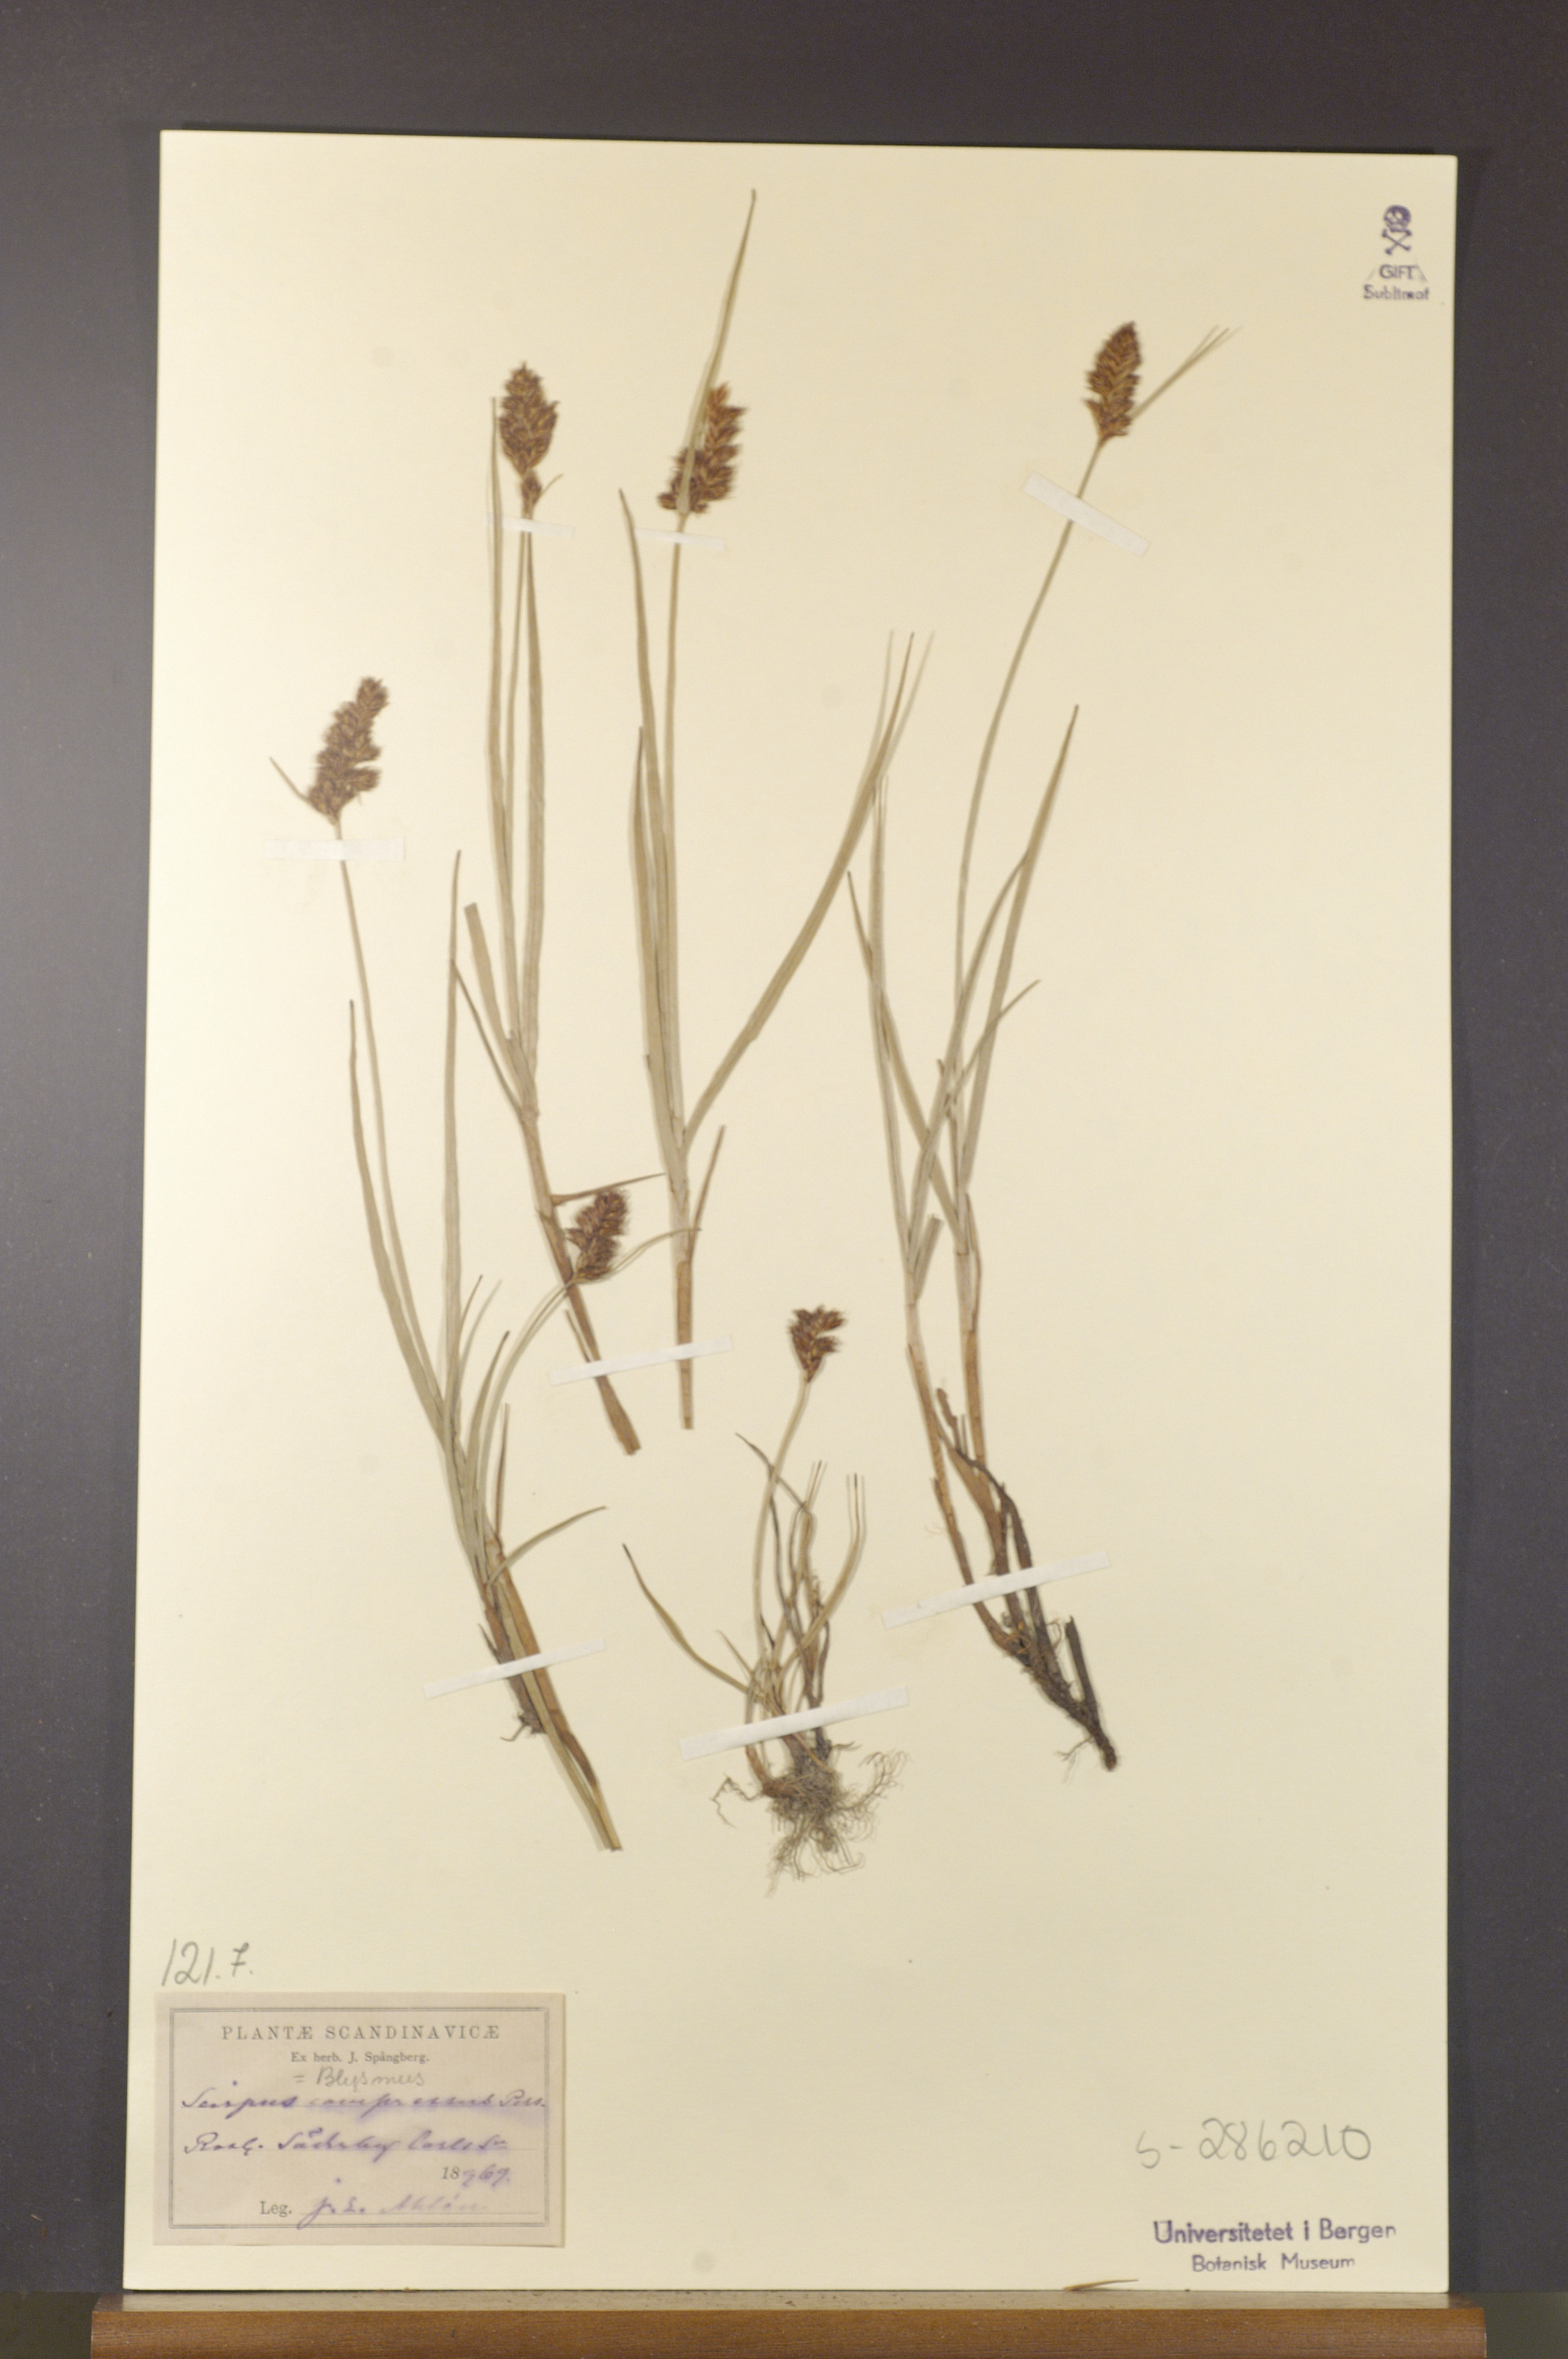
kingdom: Plantae
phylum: Tracheophyta
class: Liliopsida
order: Poales
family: Cyperaceae
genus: Blysmus
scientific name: Blysmus compressus
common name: Flat-sedge
